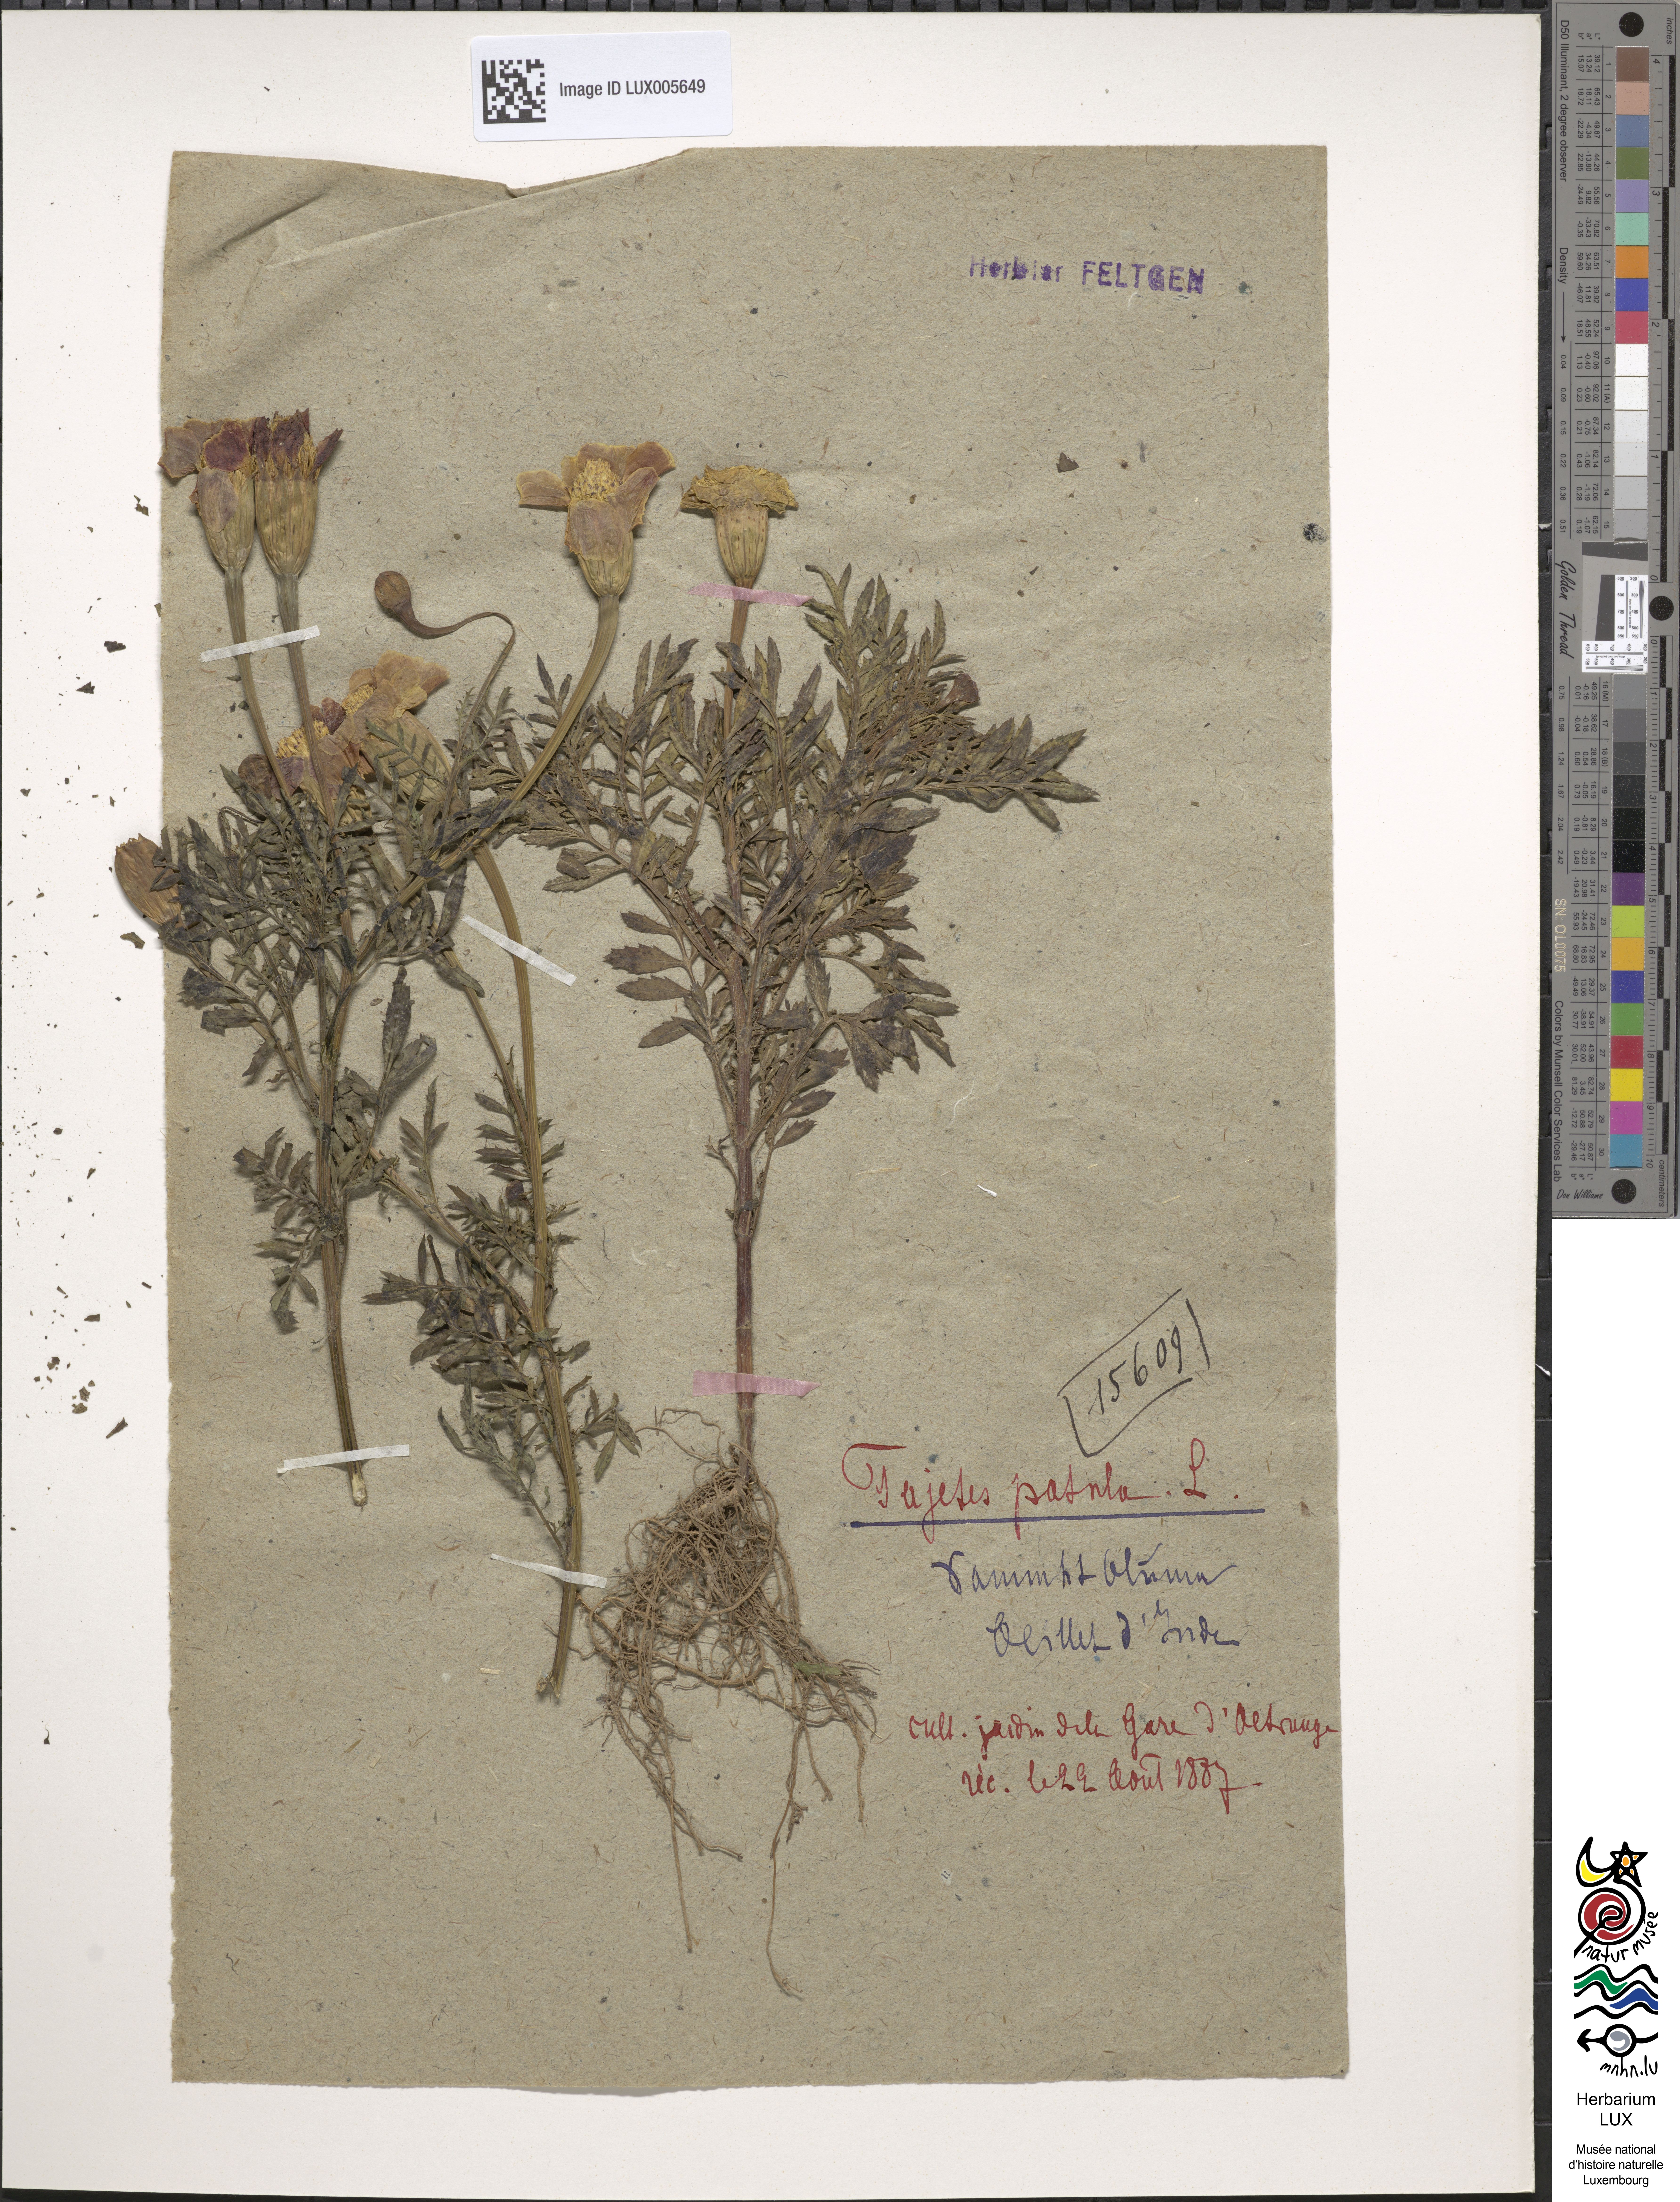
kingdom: Plantae
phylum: Tracheophyta
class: Magnoliopsida
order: Asterales
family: Asteraceae
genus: Tagetes
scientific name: Tagetes erecta
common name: African marigold
